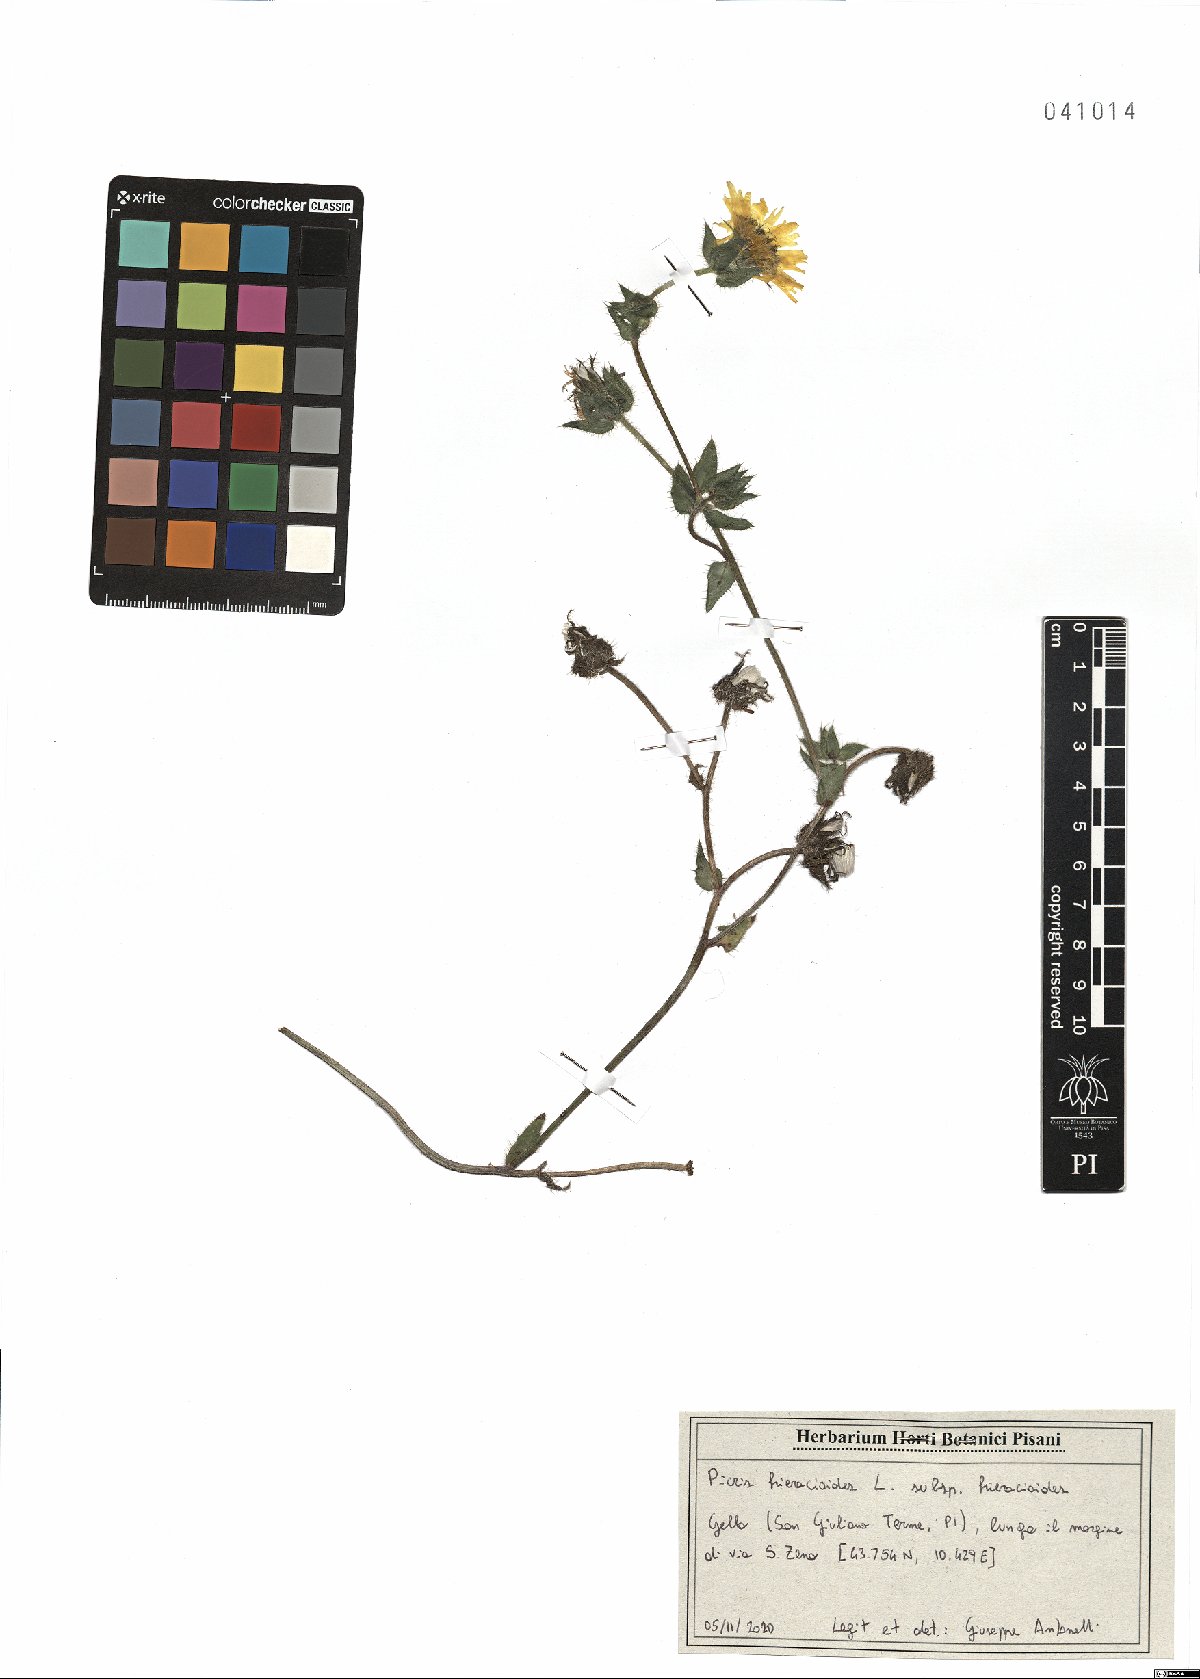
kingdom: Plantae
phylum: Tracheophyta
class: Magnoliopsida
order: Asterales
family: Asteraceae
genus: Picris
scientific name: Picris hieracioides
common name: Hawkweed oxtongue
